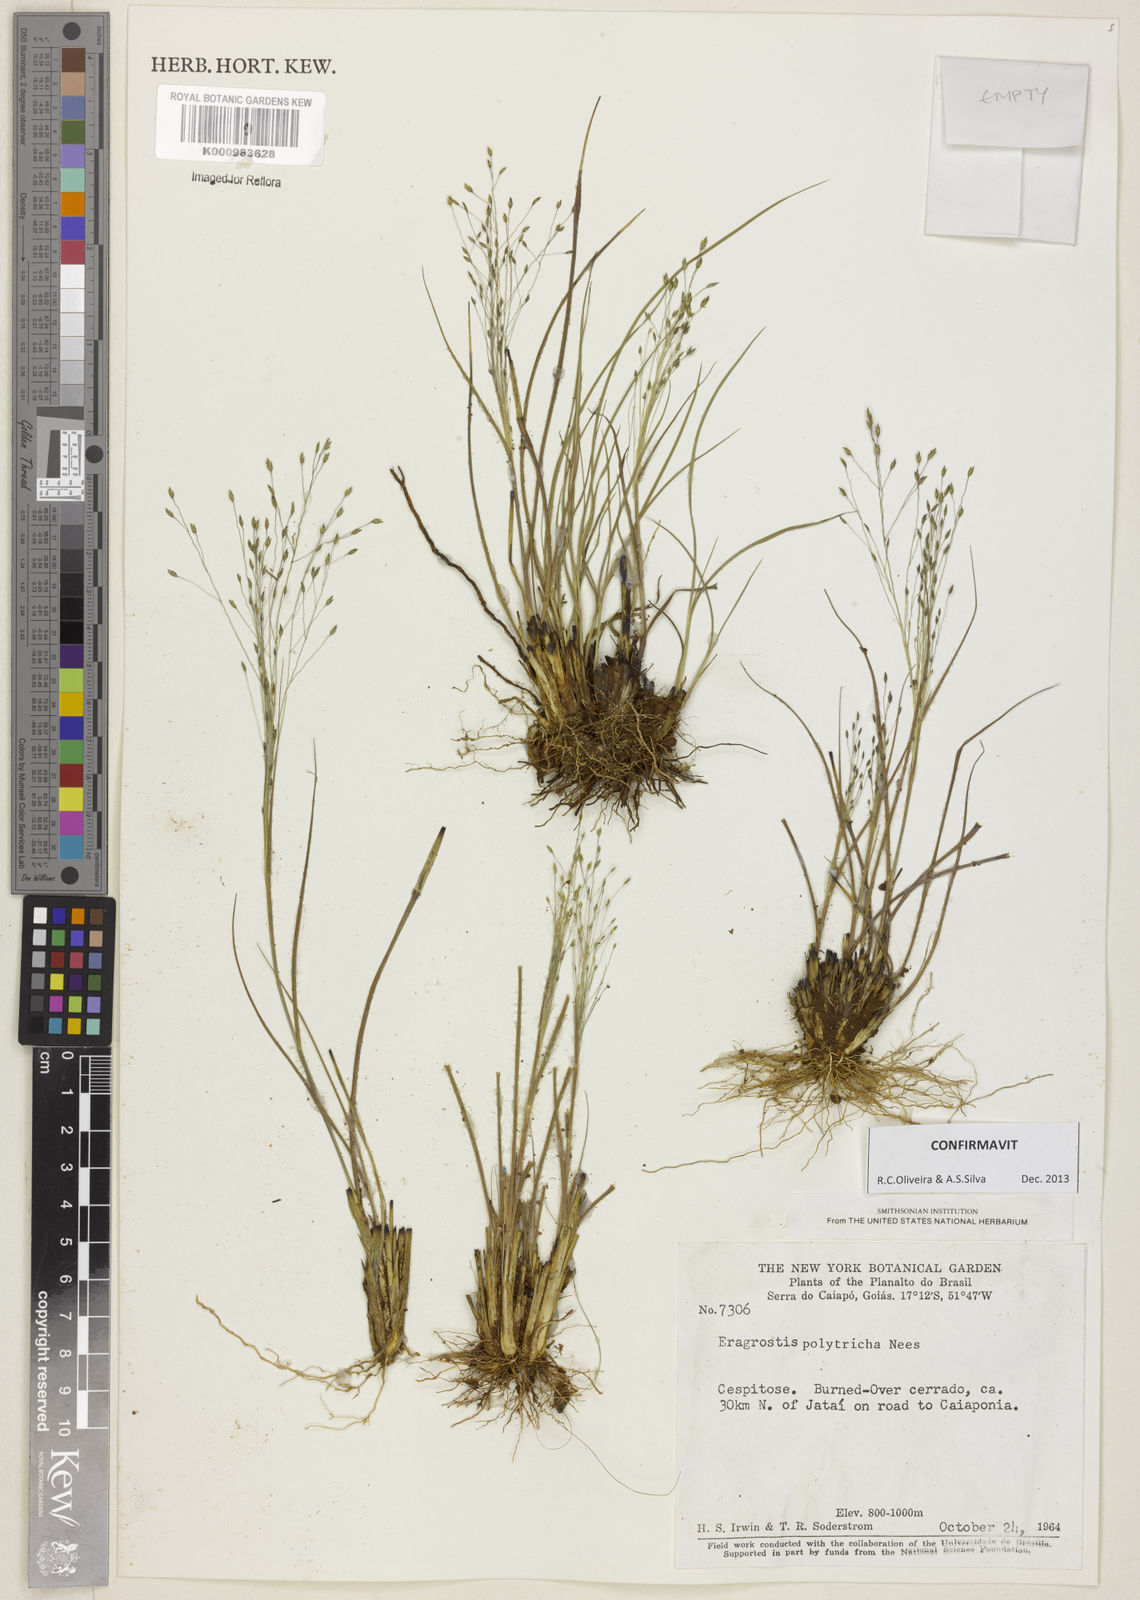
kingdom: Plantae
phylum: Tracheophyta
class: Liliopsida
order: Poales
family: Poaceae
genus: Eragrostis
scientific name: Eragrostis polytricha
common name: Hairy-sheath love grass
